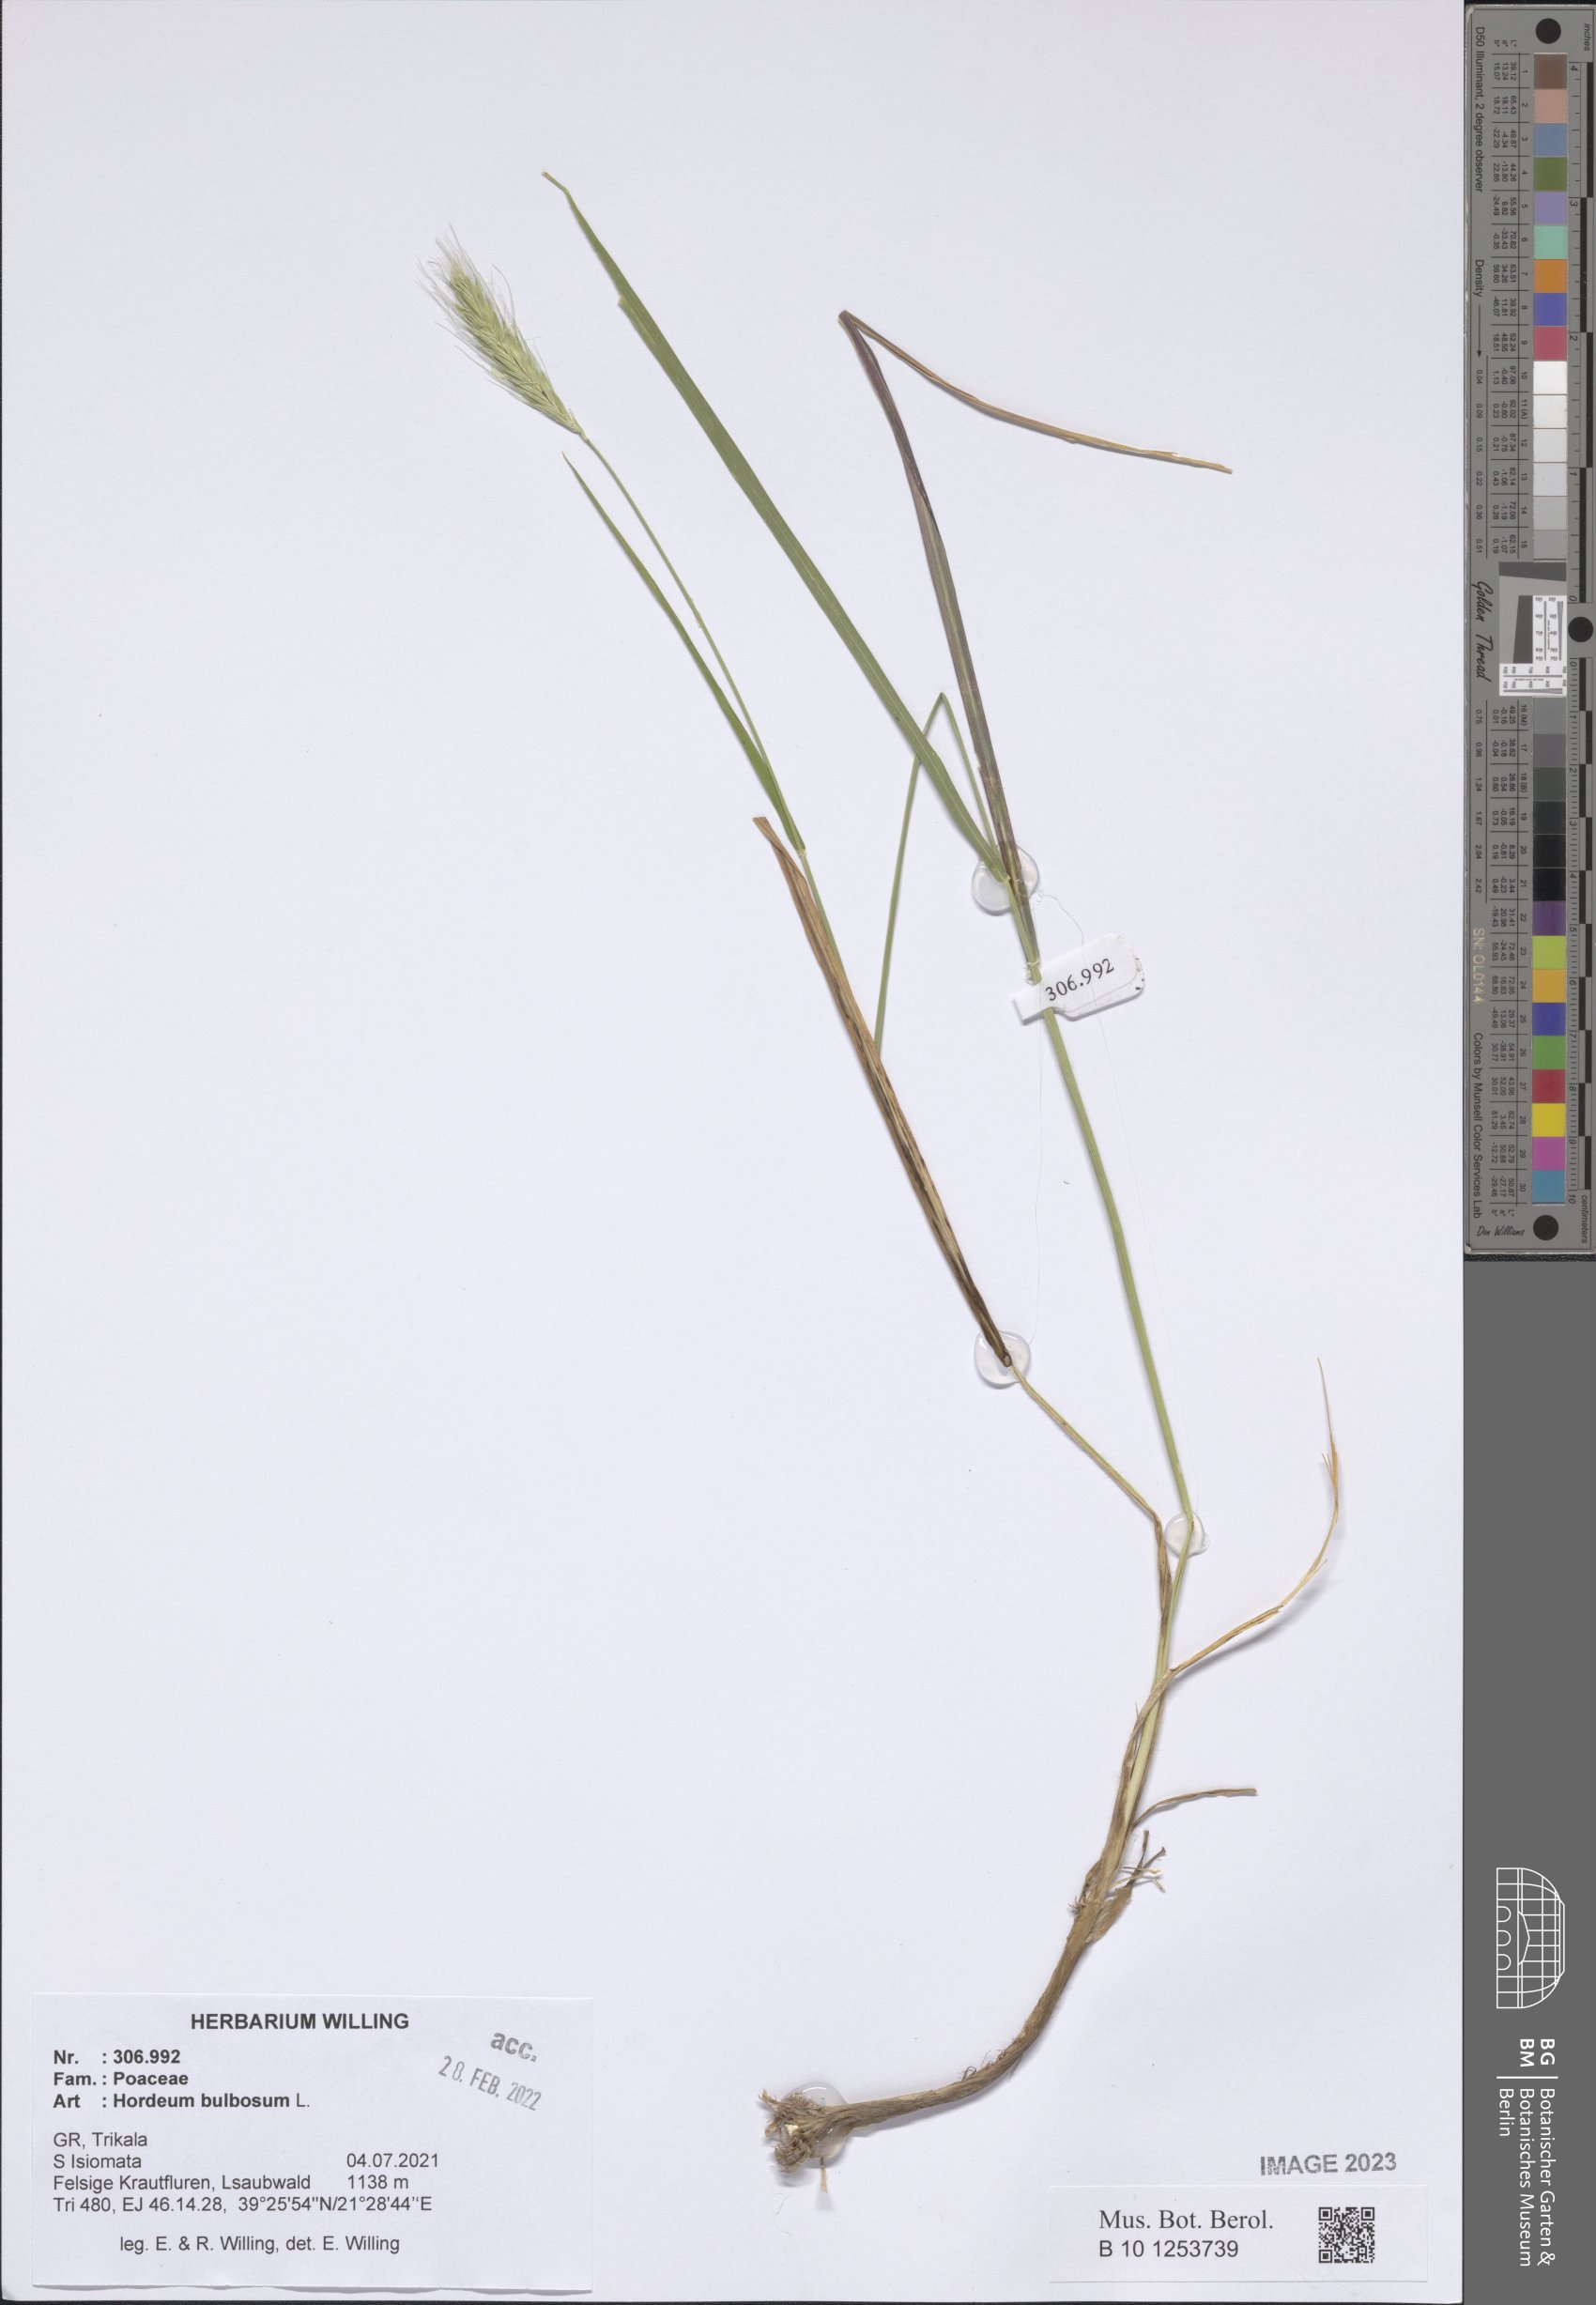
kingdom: Plantae
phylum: Tracheophyta
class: Liliopsida
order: Poales
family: Poaceae
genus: Hordeum
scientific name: Hordeum bulbosum
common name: Bulbous barley
